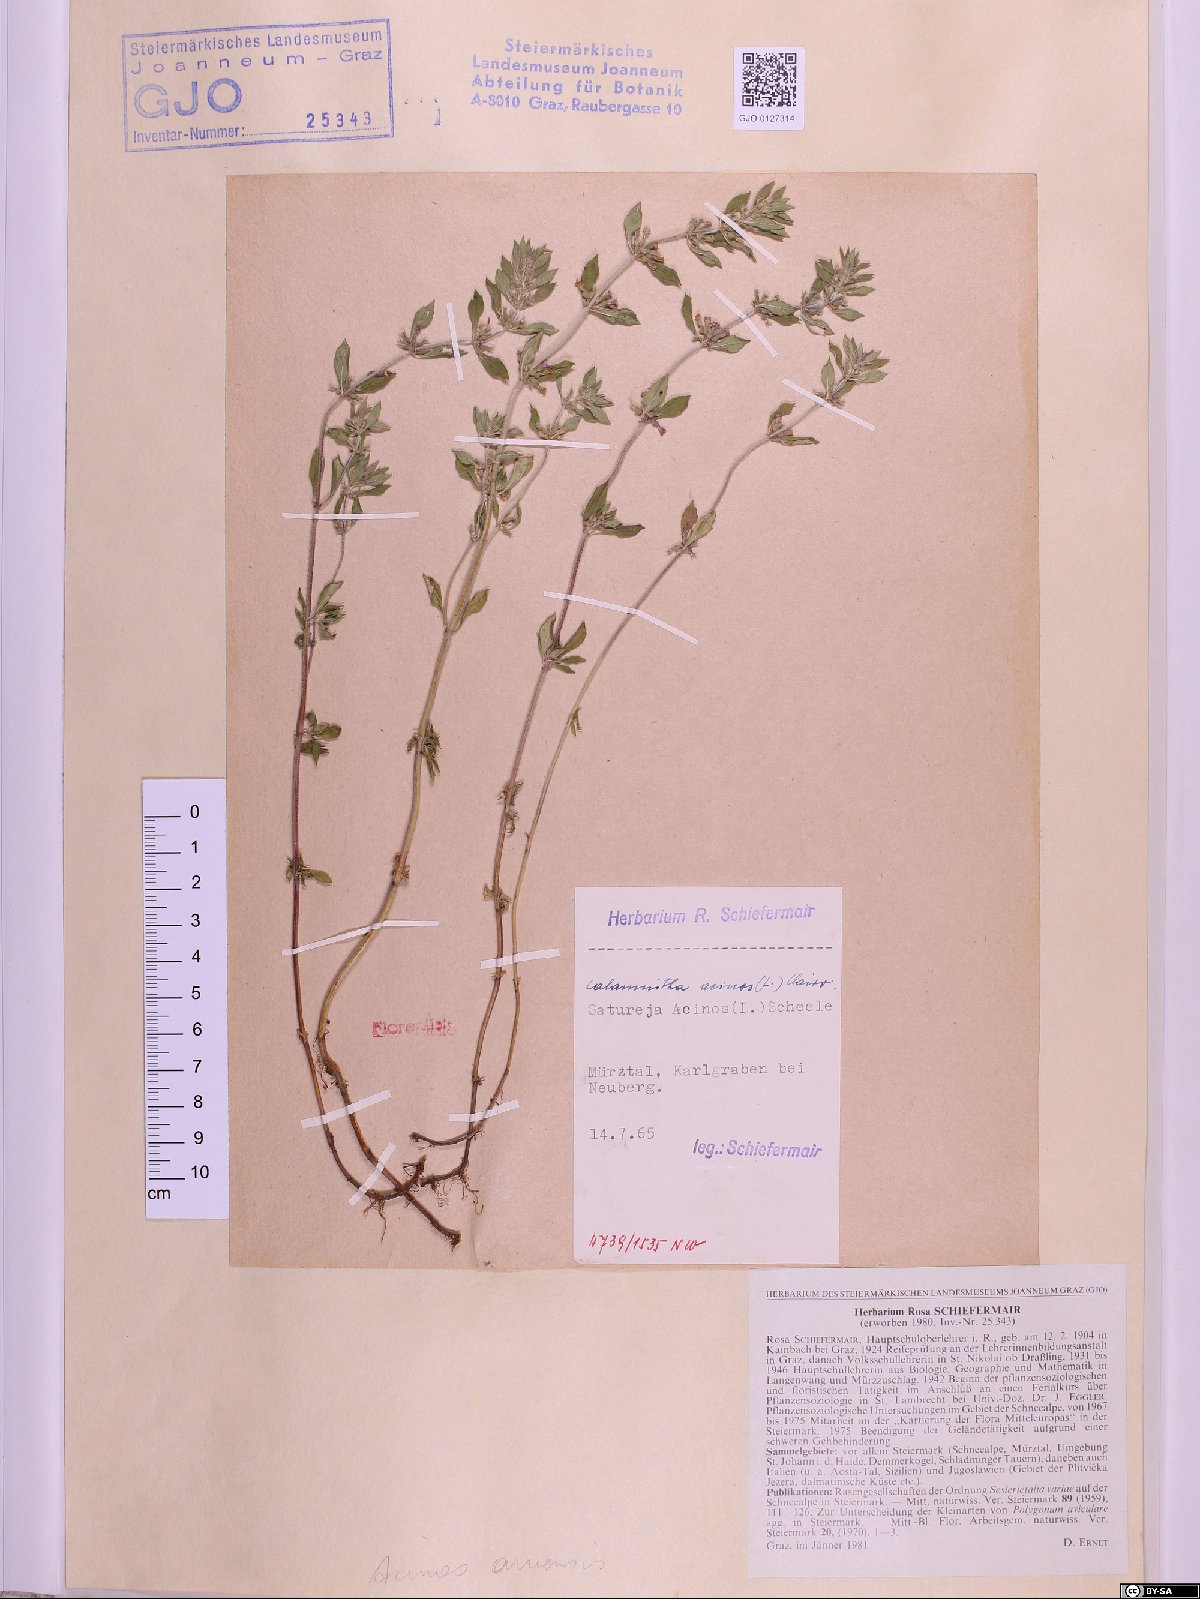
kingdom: Plantae
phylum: Tracheophyta
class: Magnoliopsida
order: Lamiales
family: Lamiaceae
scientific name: Lamiaceae
